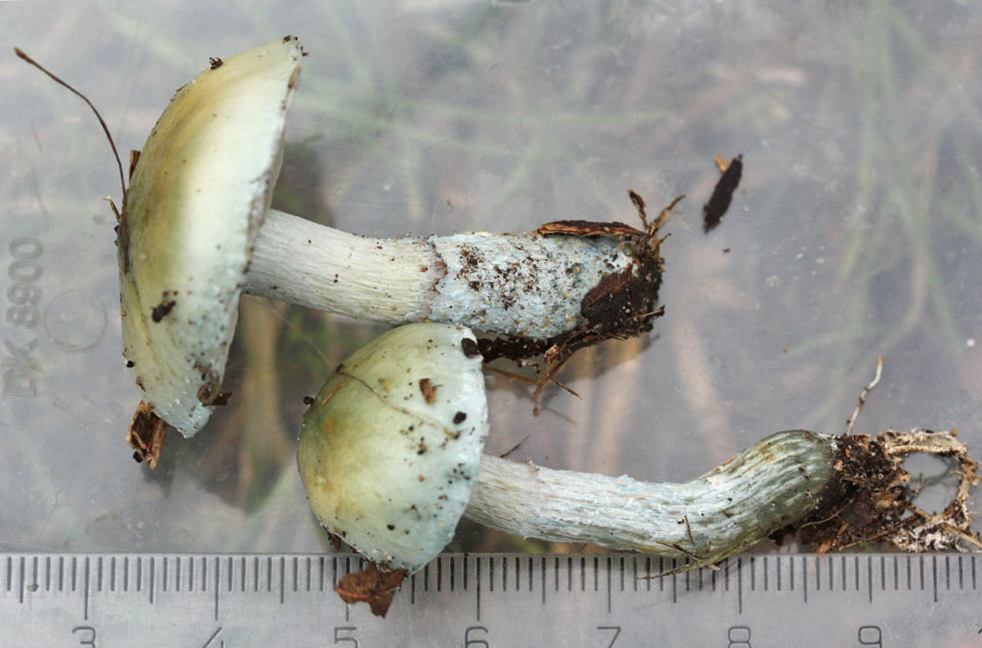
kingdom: Fungi
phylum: Basidiomycota
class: Agaricomycetes
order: Agaricales
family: Strophariaceae
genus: Stropharia
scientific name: Stropharia cyanea
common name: blågrøn bredblad
